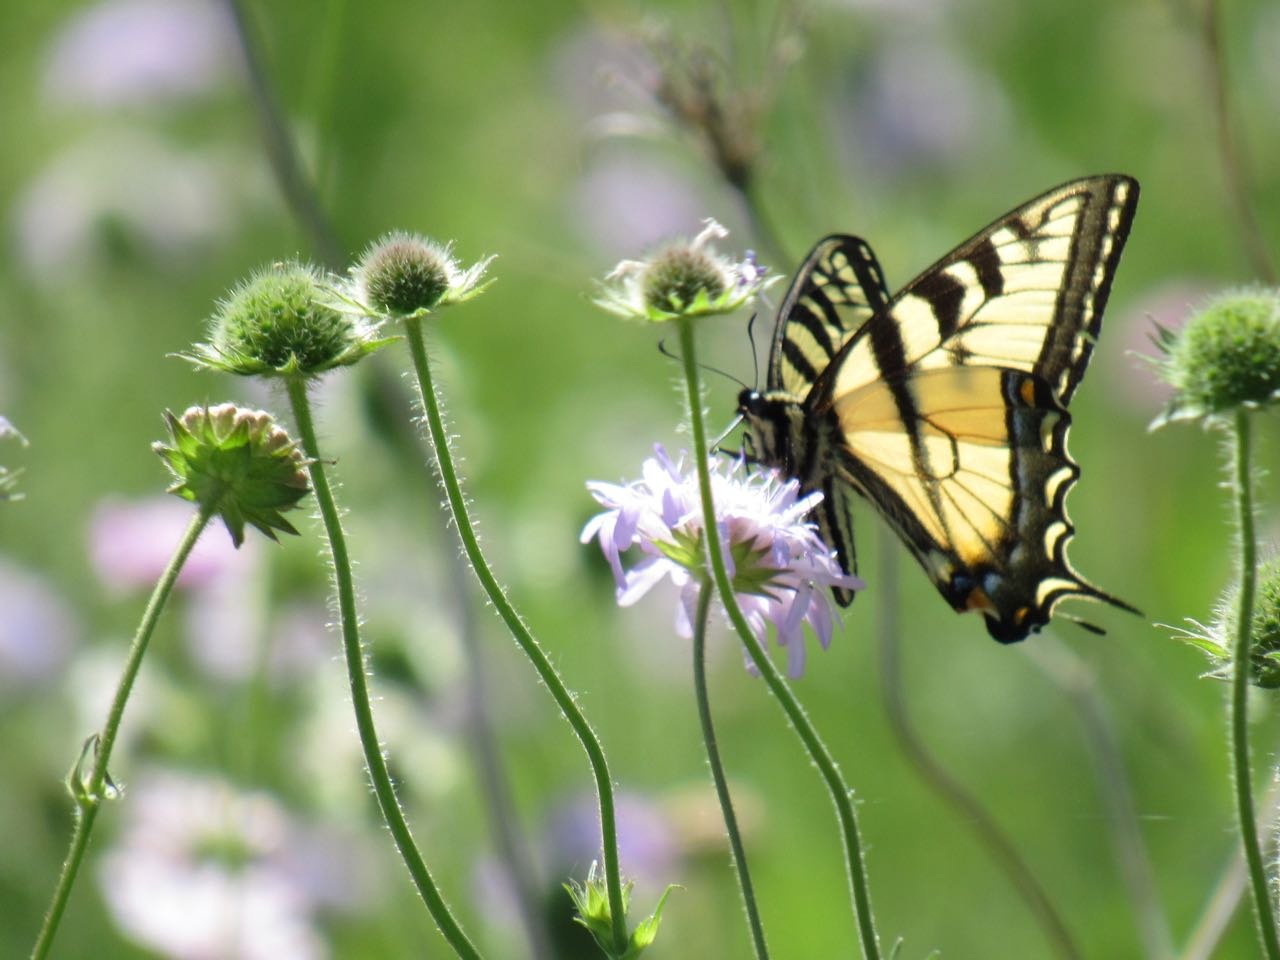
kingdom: Animalia
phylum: Arthropoda
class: Insecta
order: Lepidoptera
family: Papilionidae
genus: Pterourus
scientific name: Pterourus canadensis
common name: Canadian Tiger Swallowtail
